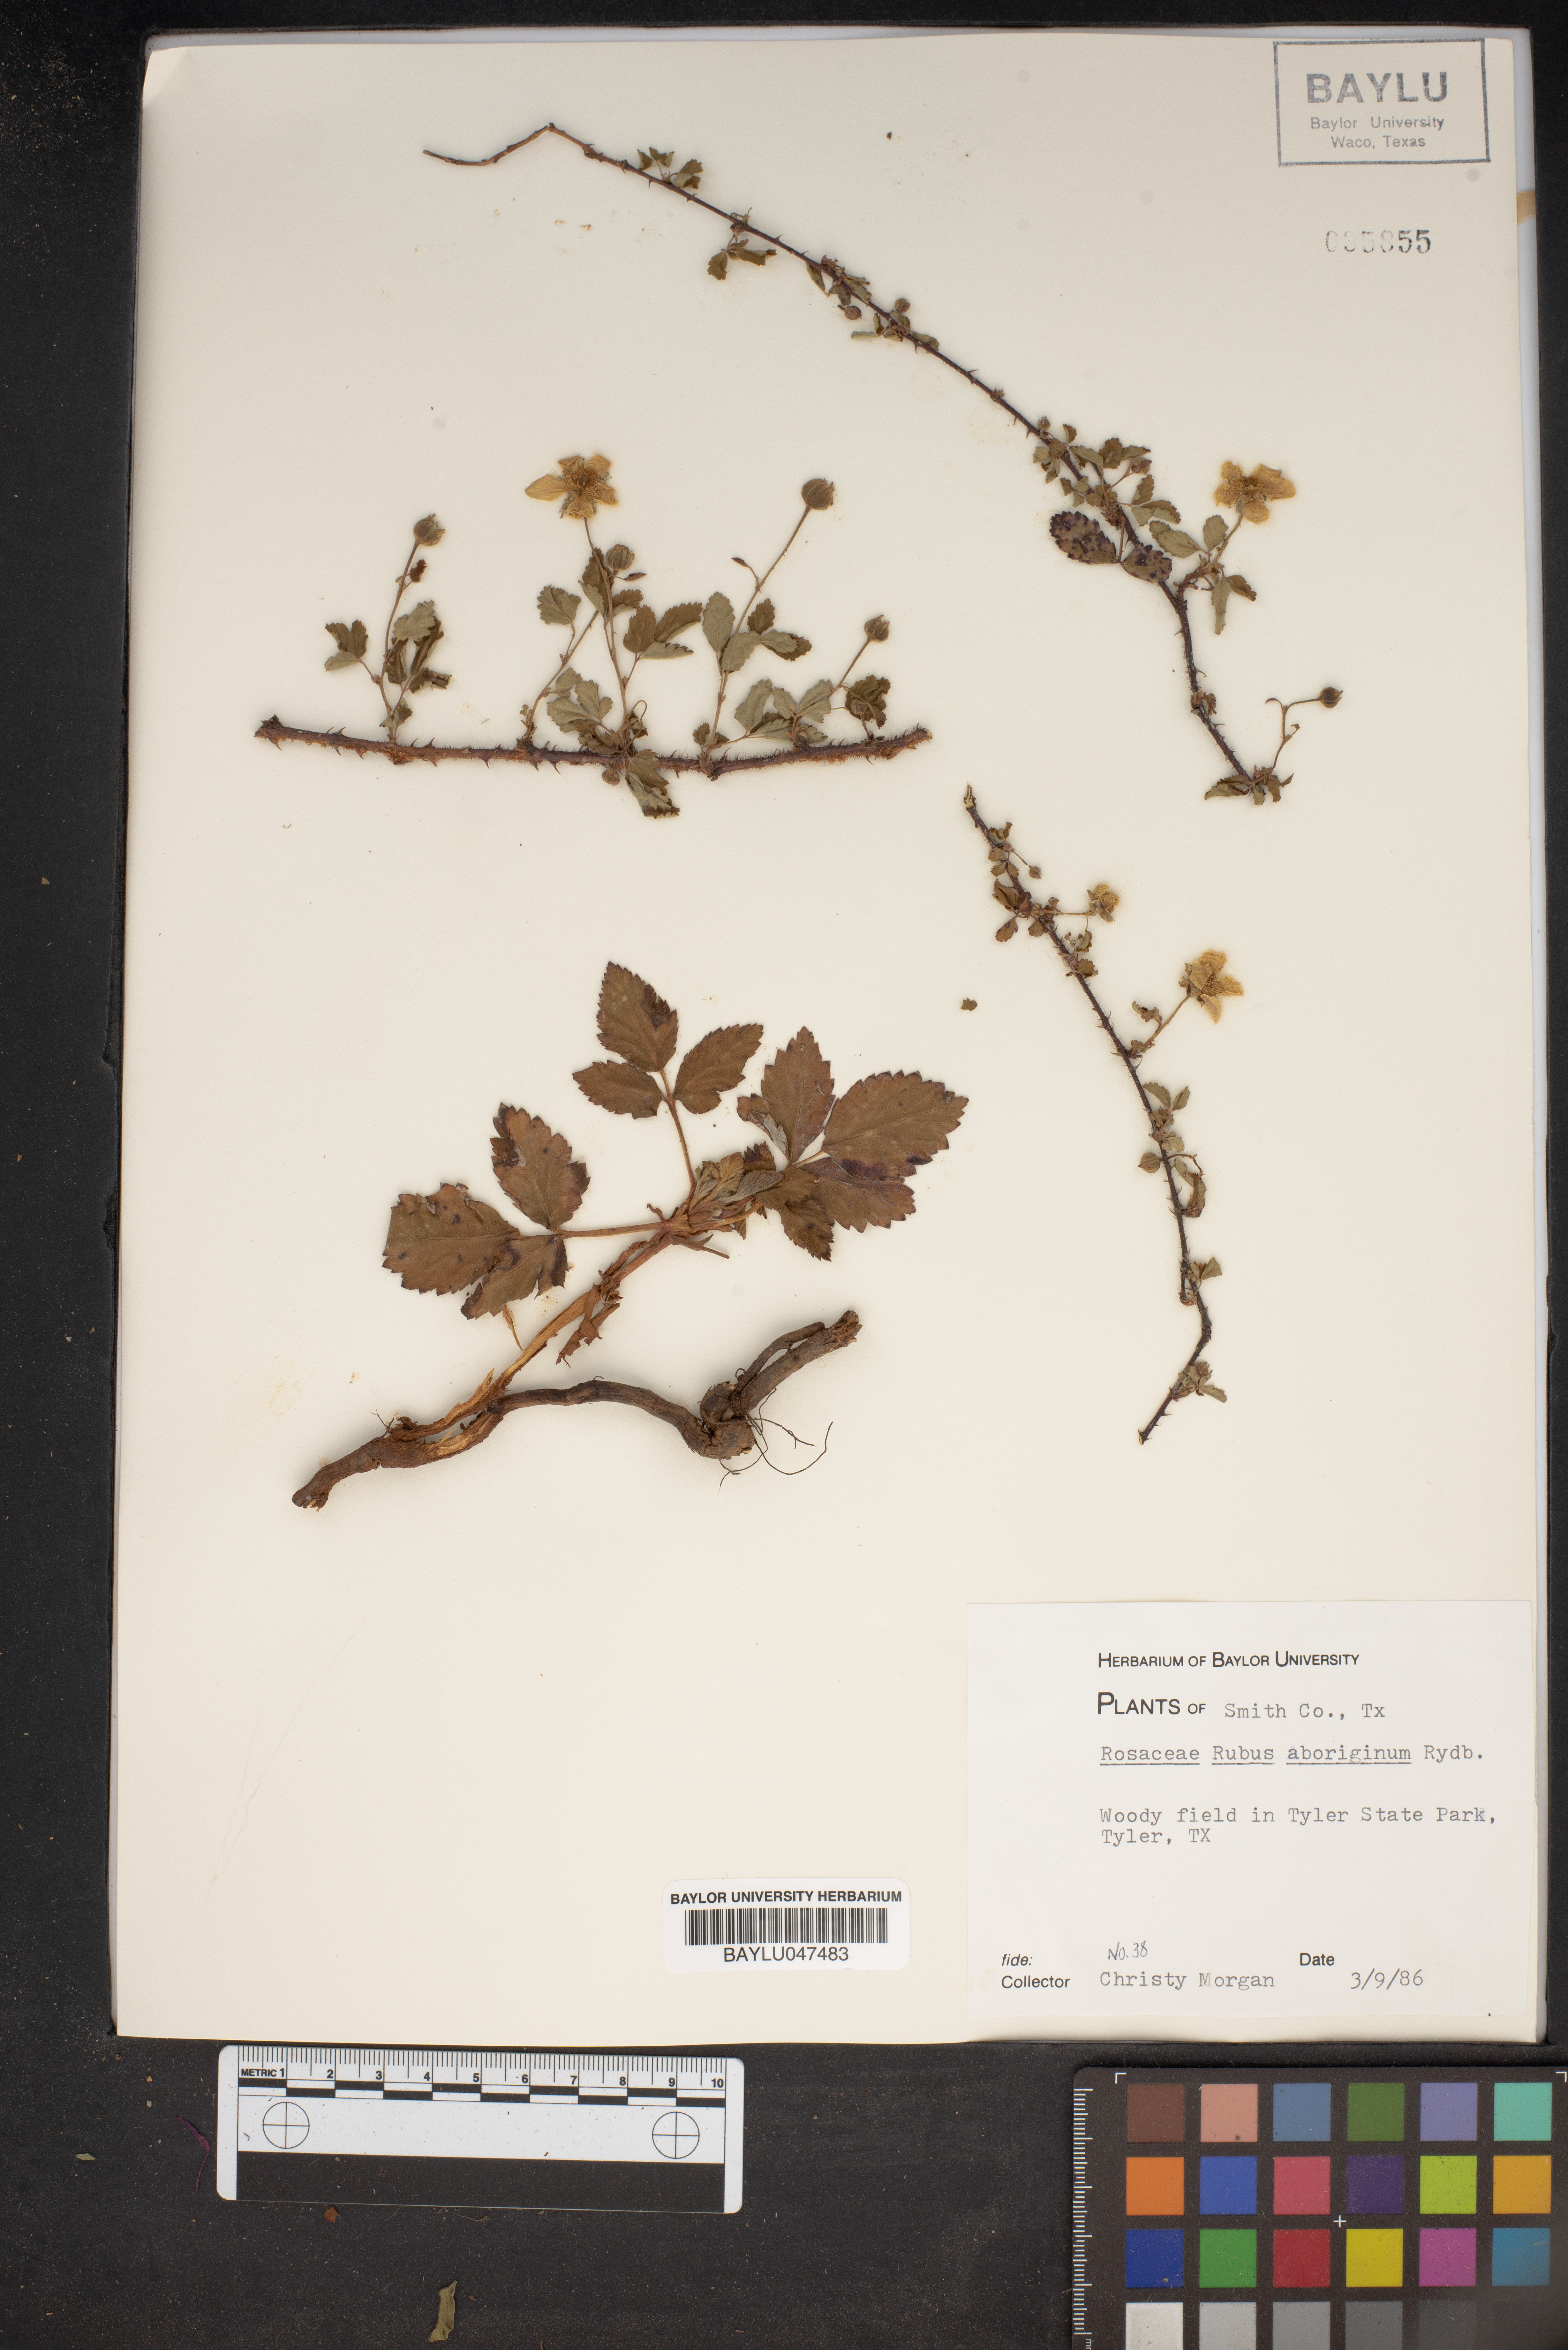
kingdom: Plantae
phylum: Tracheophyta
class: Magnoliopsida
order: Rosales
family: Rosaceae
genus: Rubus
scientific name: Rubus aboriginum
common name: Mayes dewberry
